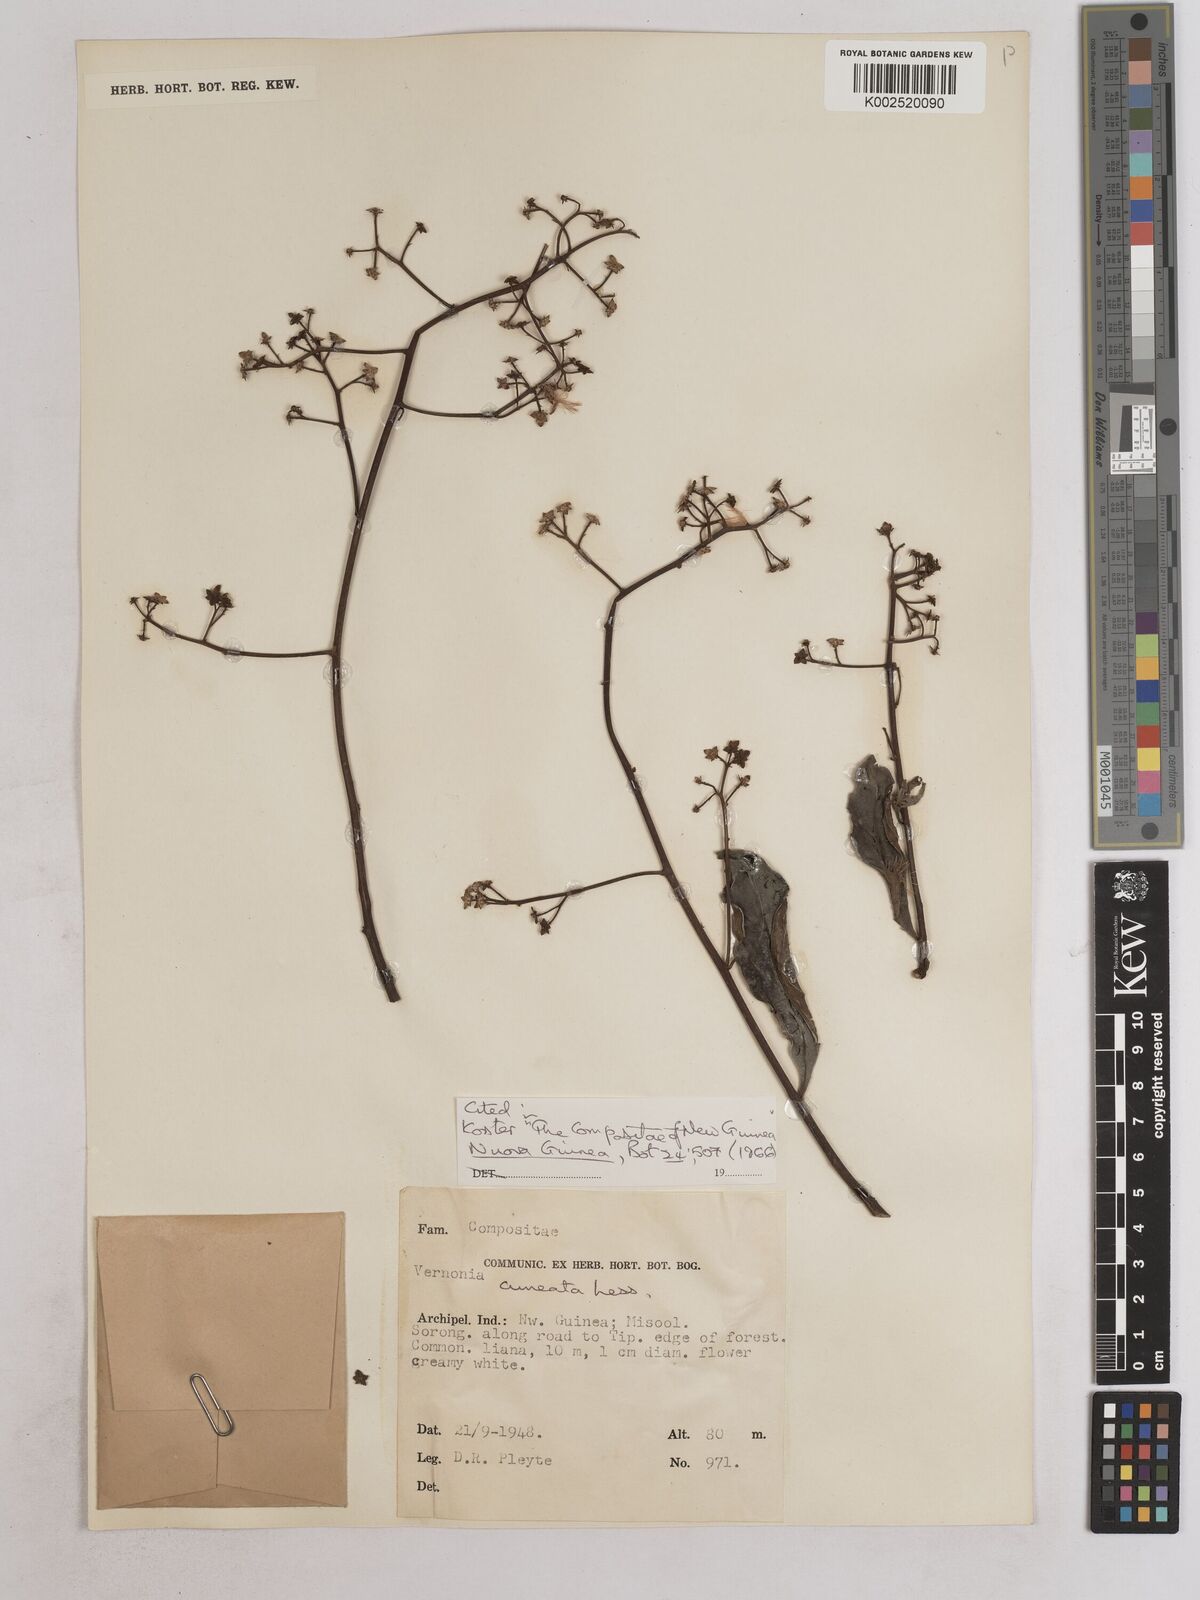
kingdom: Plantae
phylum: Tracheophyta
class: Magnoliopsida
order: Asterales
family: Asteraceae
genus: Decaneuropsis
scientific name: Decaneuropsis obovata
